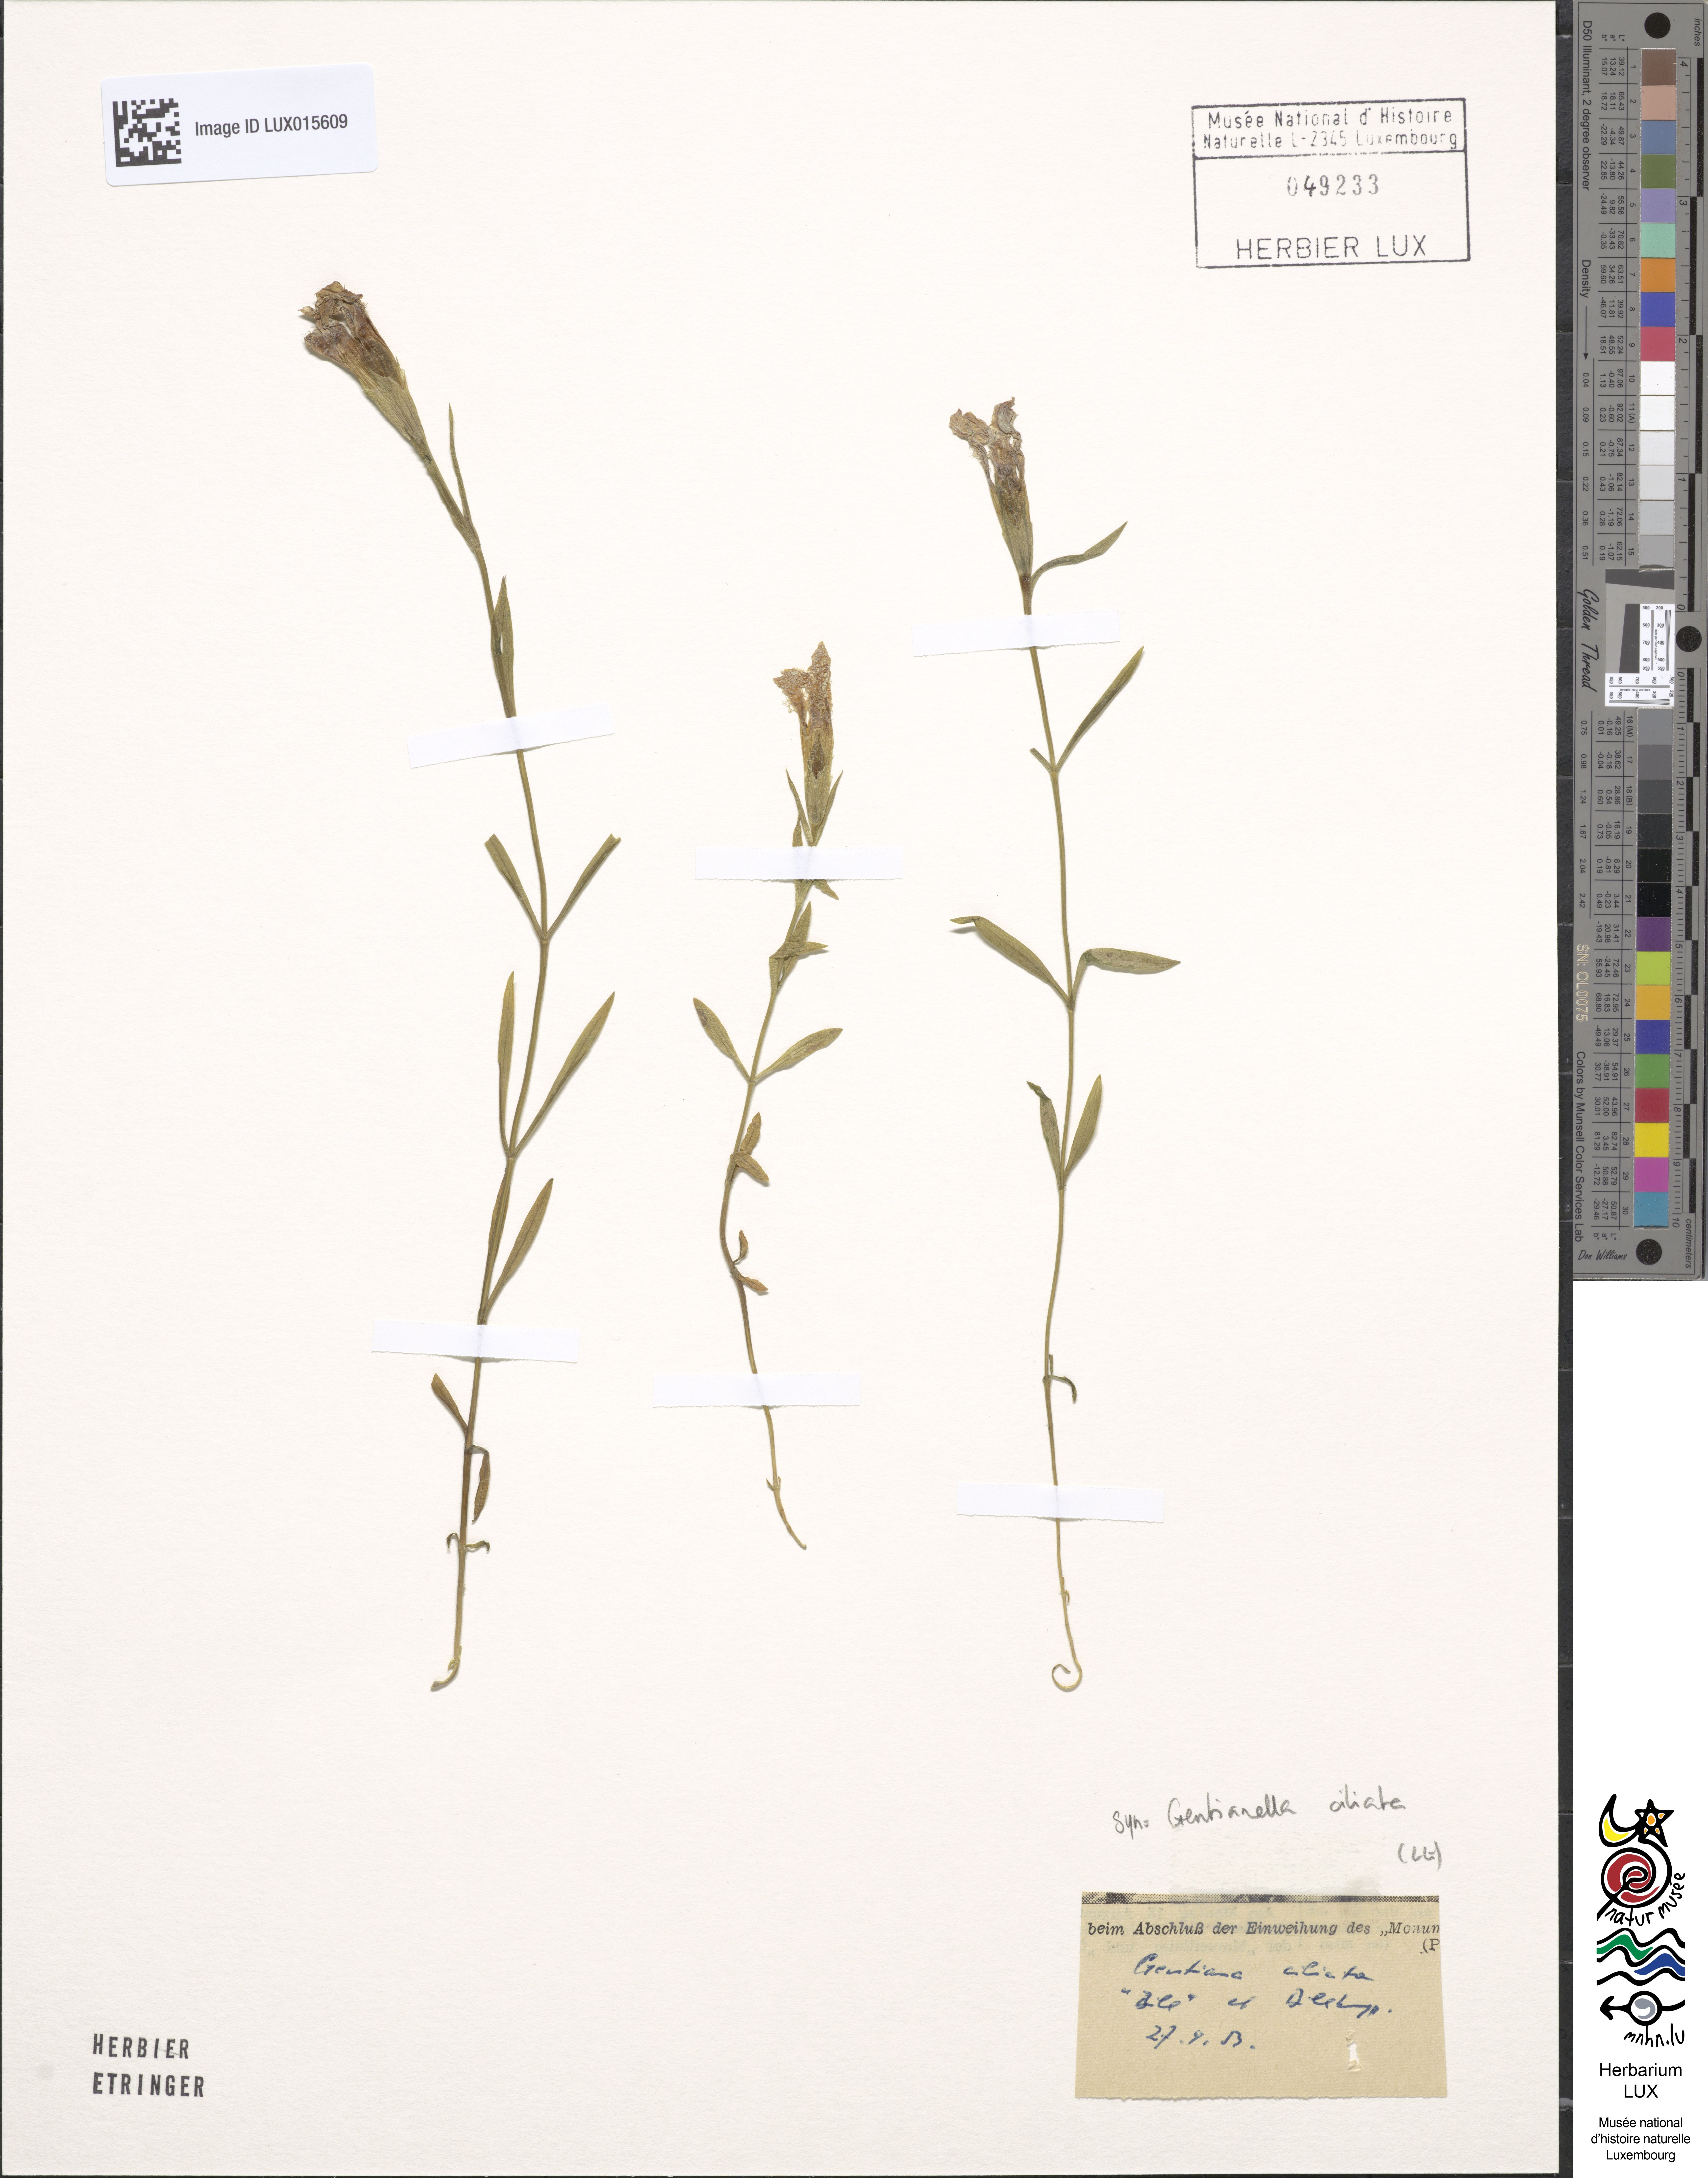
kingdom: Plantae
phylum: Tracheophyta
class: Magnoliopsida
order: Gentianales
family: Gentianaceae
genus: Gentianopsis
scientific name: Gentianopsis ciliata
